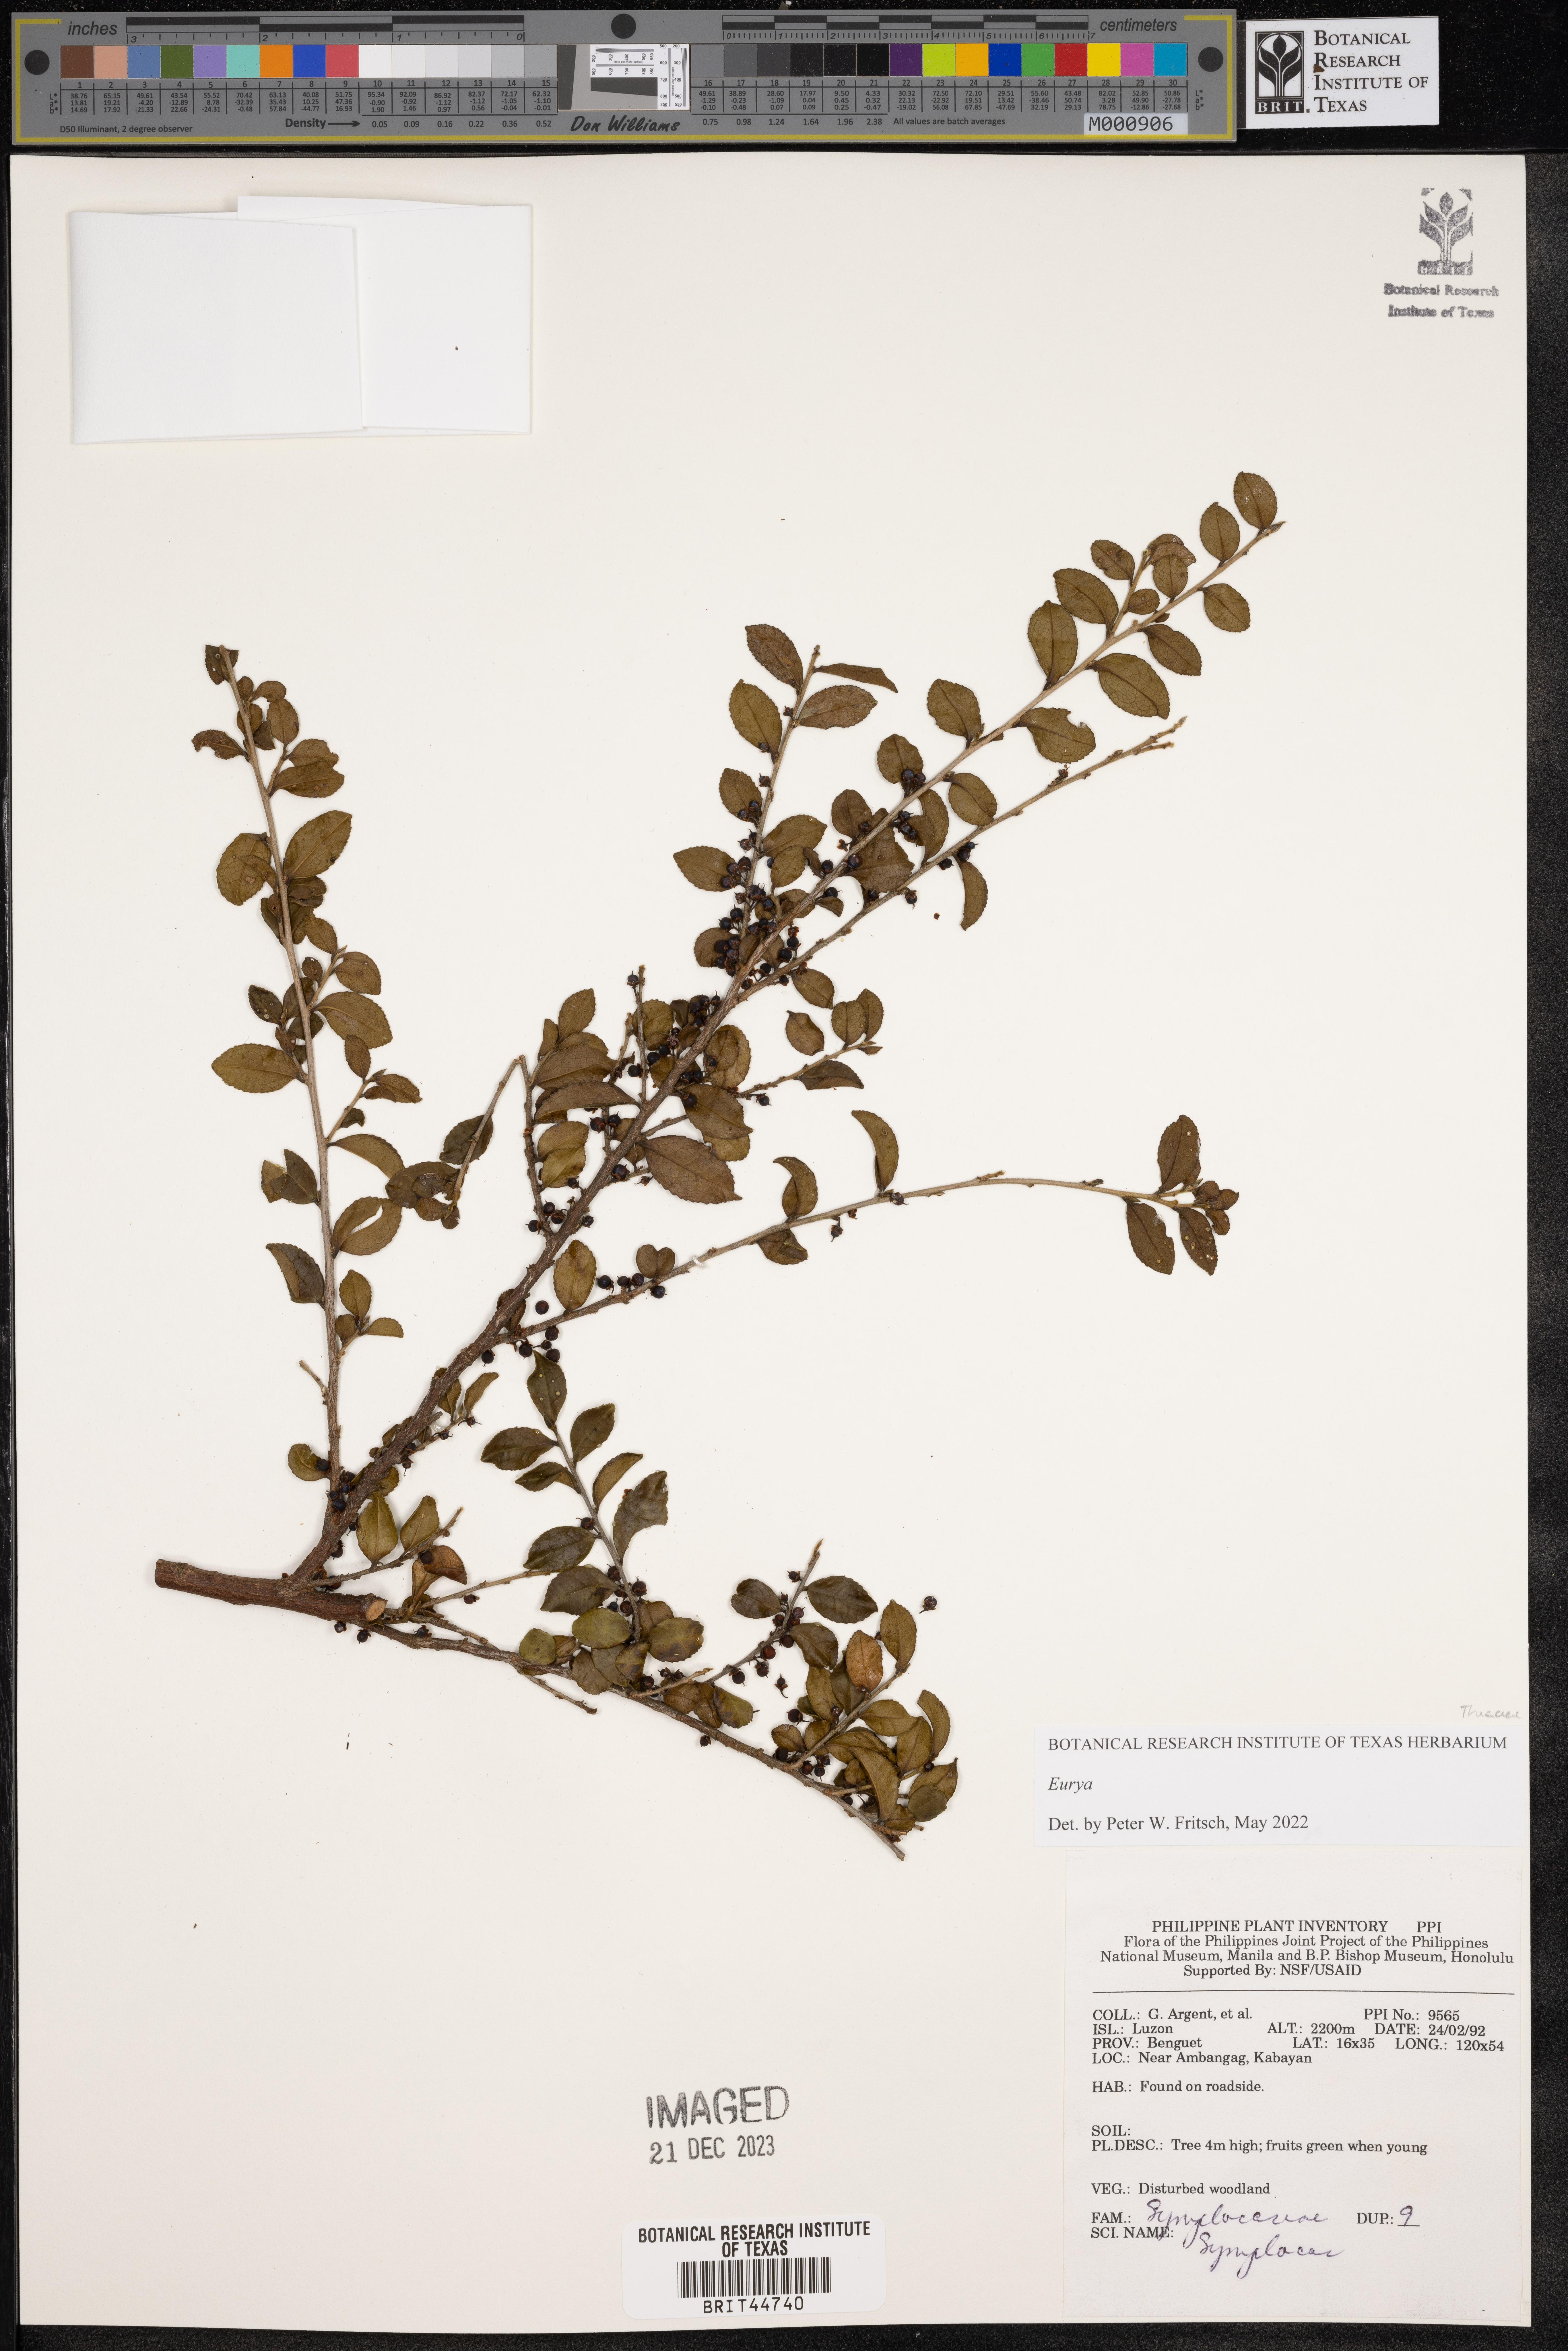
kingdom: Plantae
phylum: Tracheophyta
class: Magnoliopsida
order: Ericales
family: Symplocaceae
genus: Symplocos
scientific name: Symplocos
